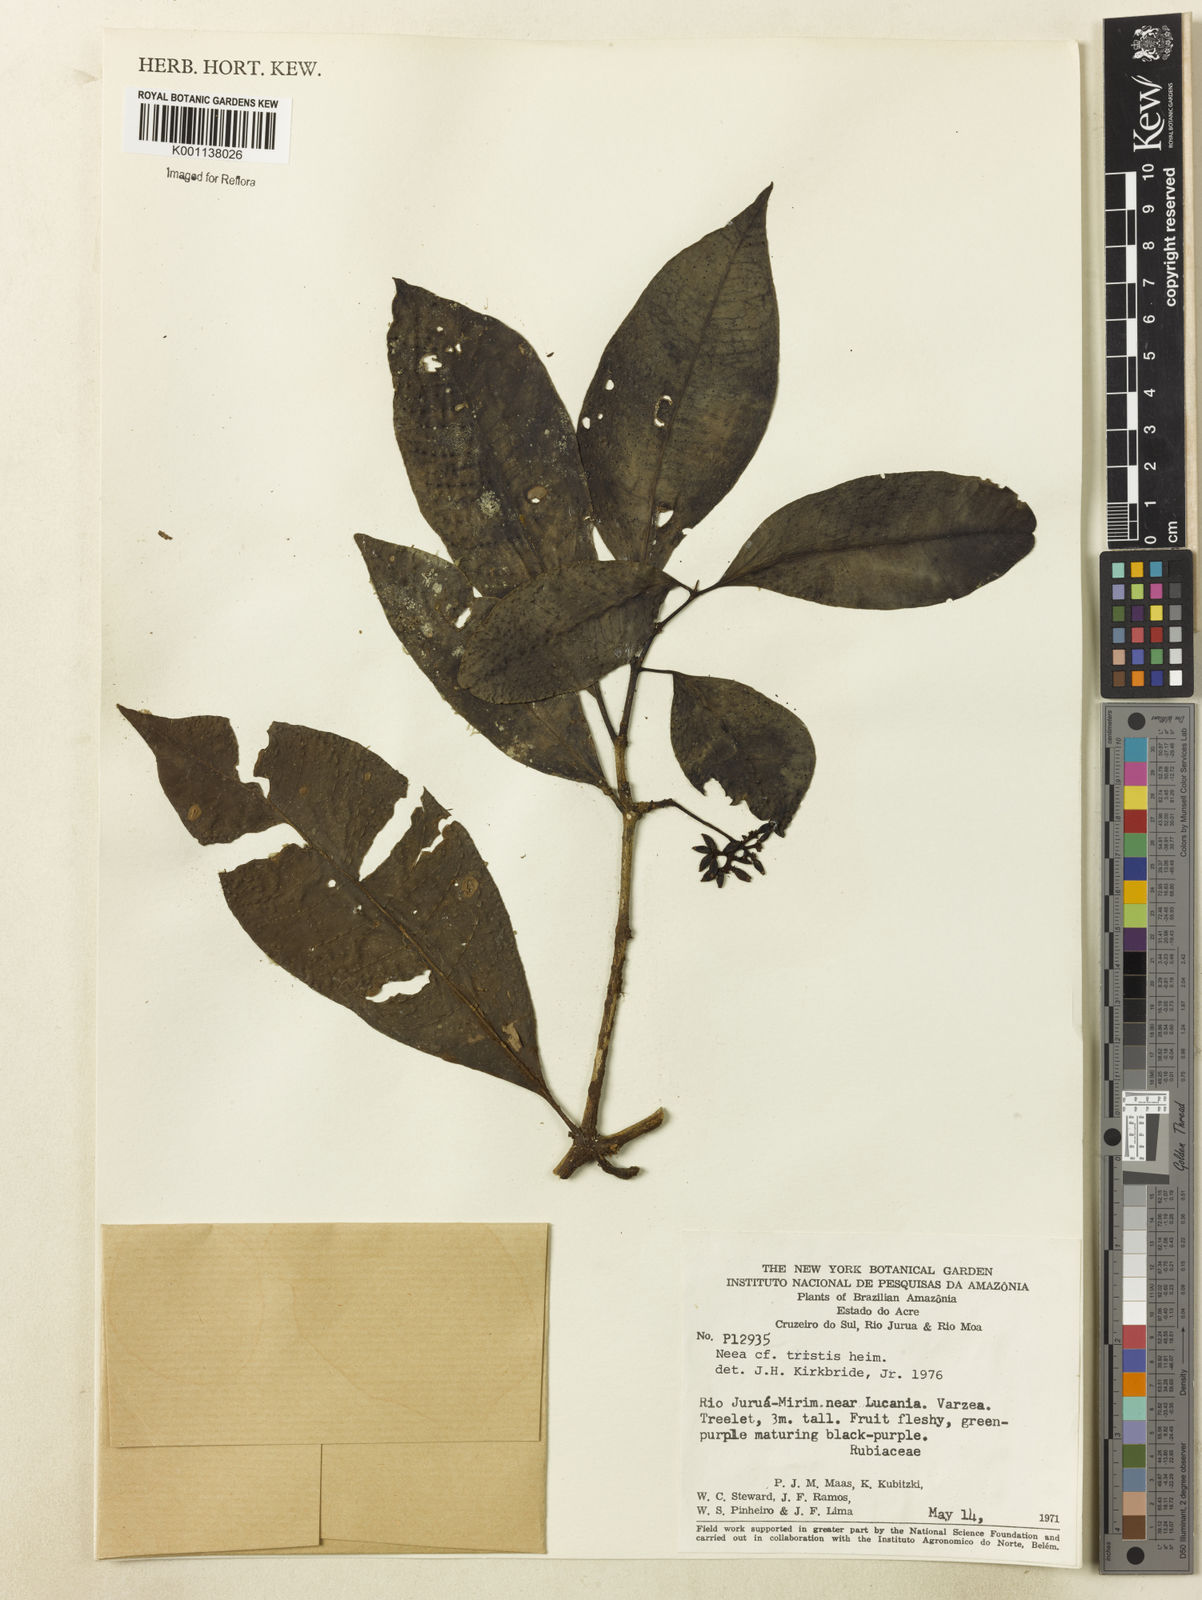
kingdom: Plantae
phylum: Tracheophyta
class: Magnoliopsida
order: Caryophyllales
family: Nyctaginaceae
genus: Neea
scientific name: Neea tristis
